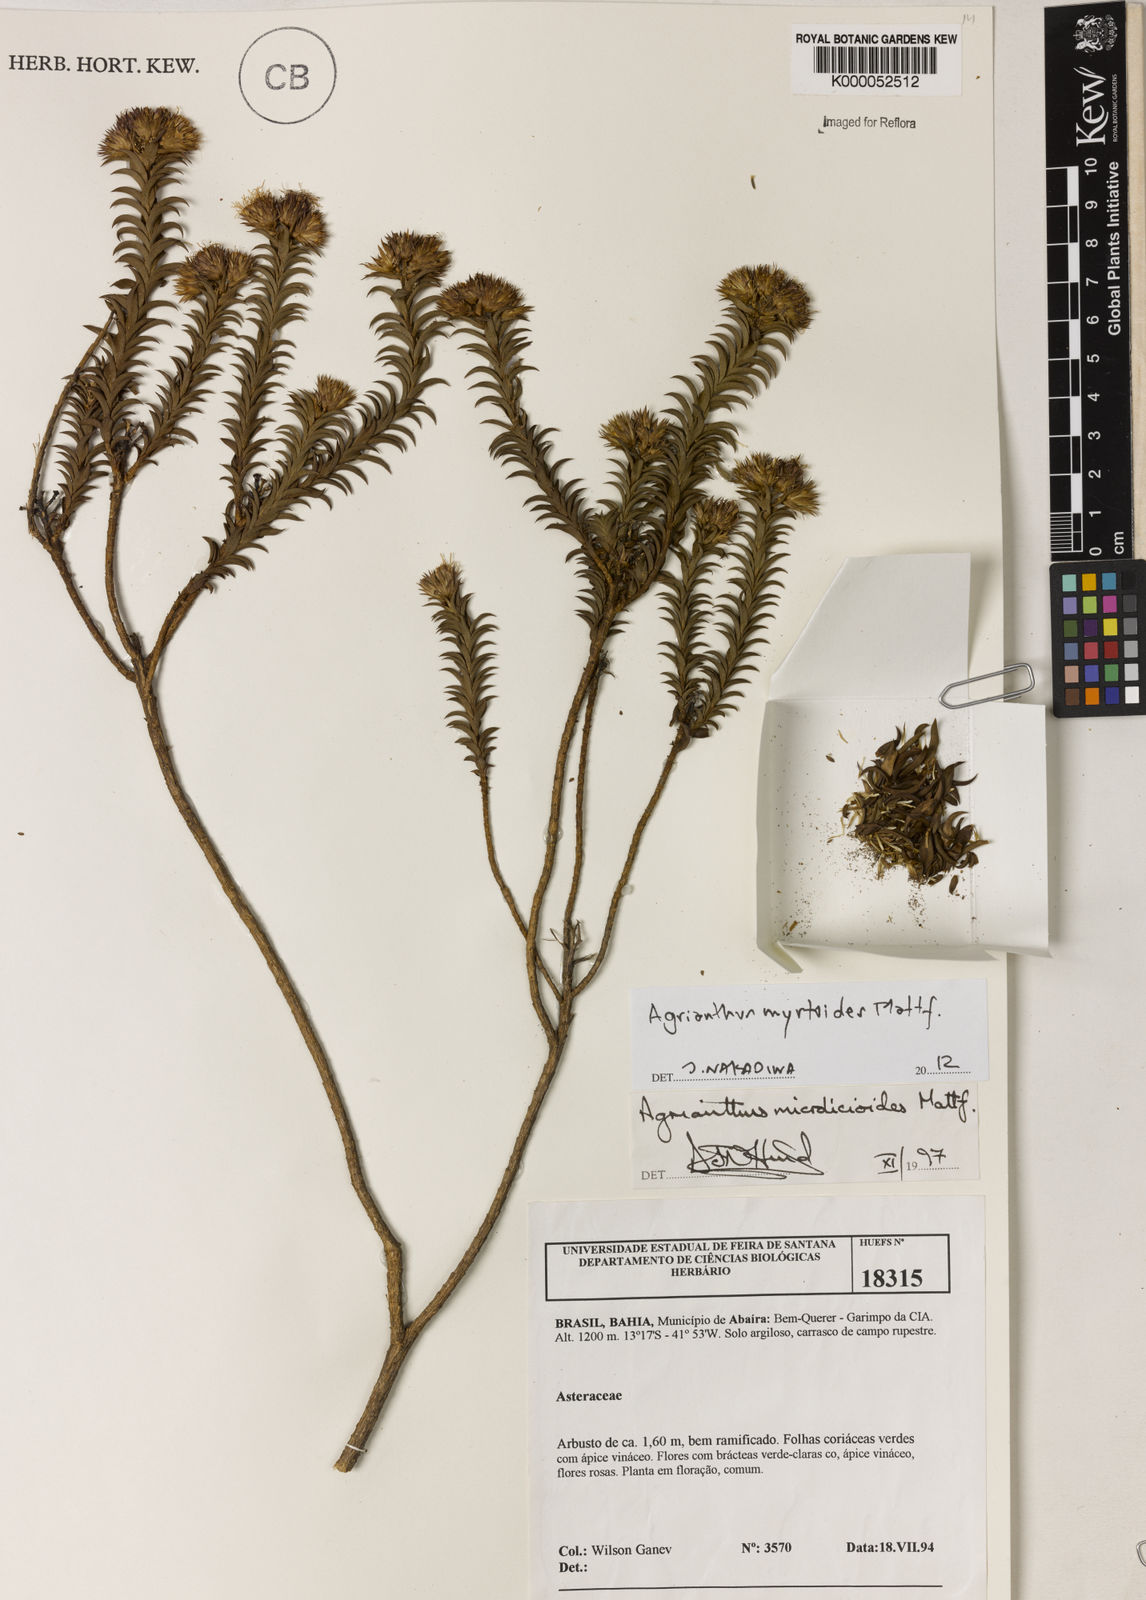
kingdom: Plantae
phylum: Tracheophyta
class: Magnoliopsida
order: Asterales
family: Asteraceae
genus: Agrianthus
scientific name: Agrianthus microlicioides
